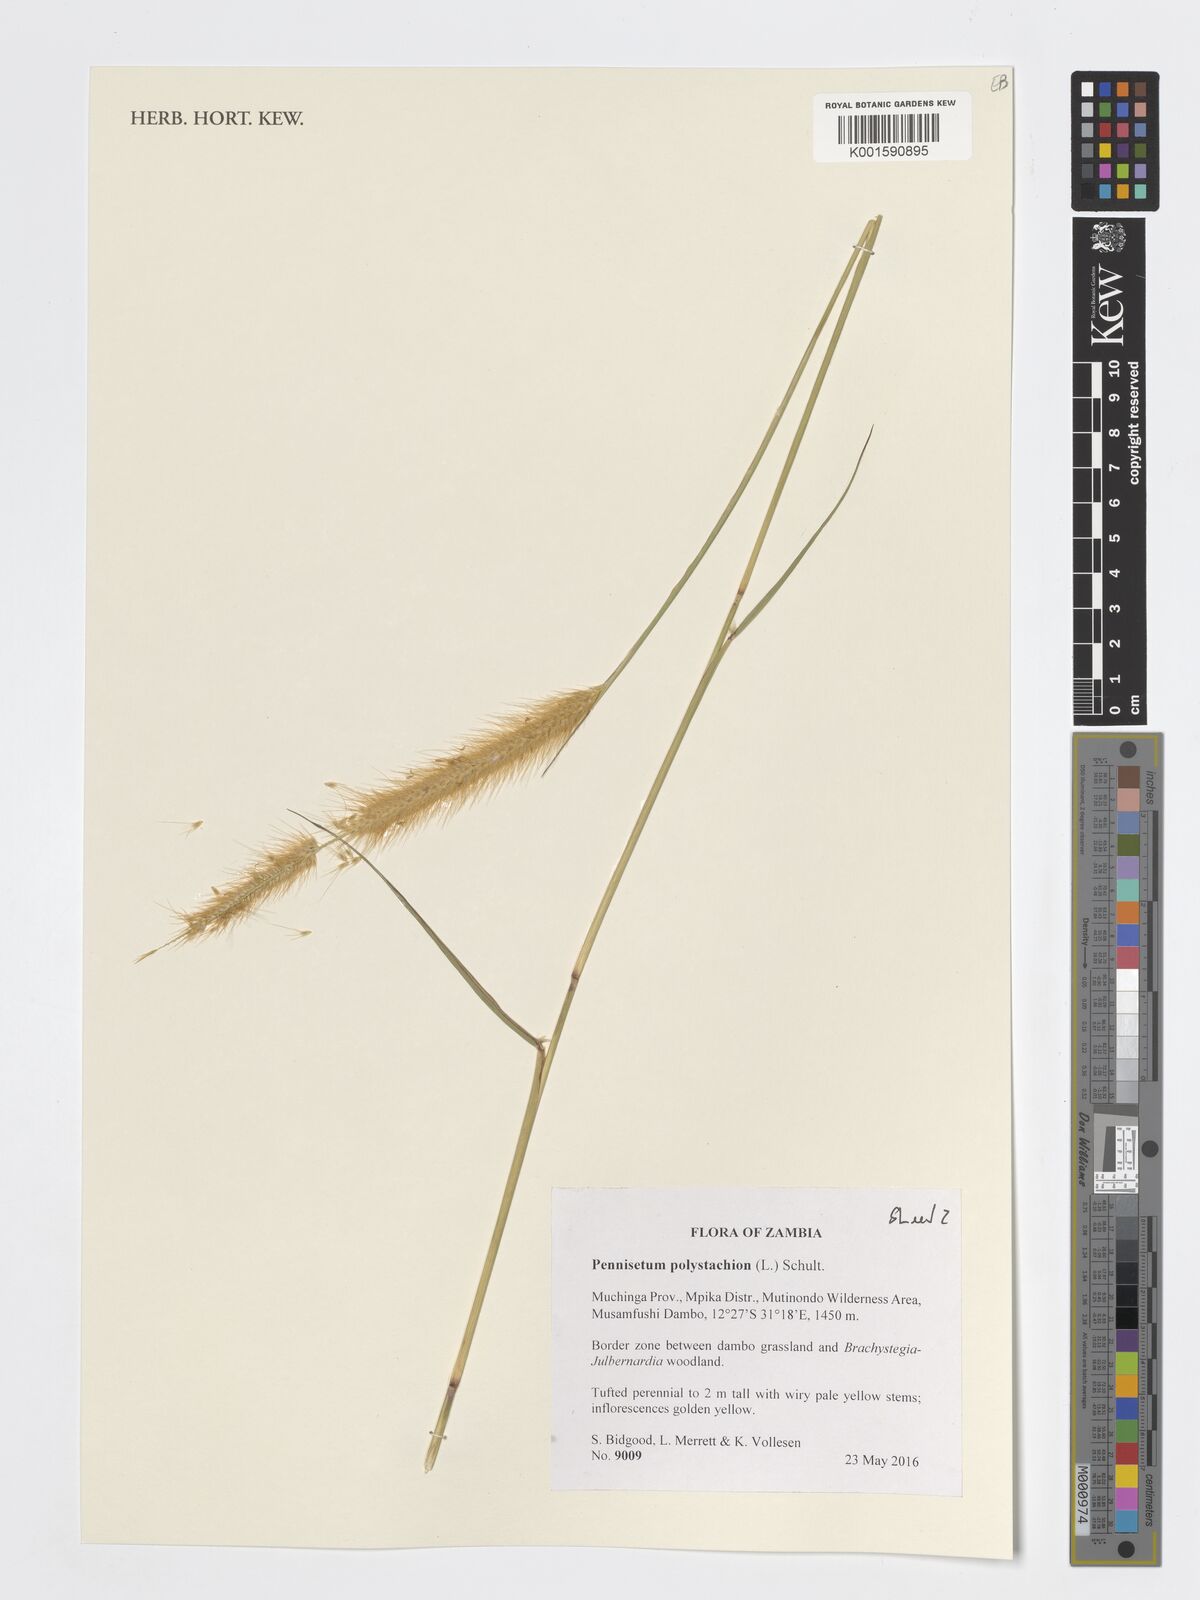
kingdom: Plantae
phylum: Tracheophyta
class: Liliopsida
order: Poales
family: Poaceae
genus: Setaria
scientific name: Setaria parviflora
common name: Knotroot bristle-grass
